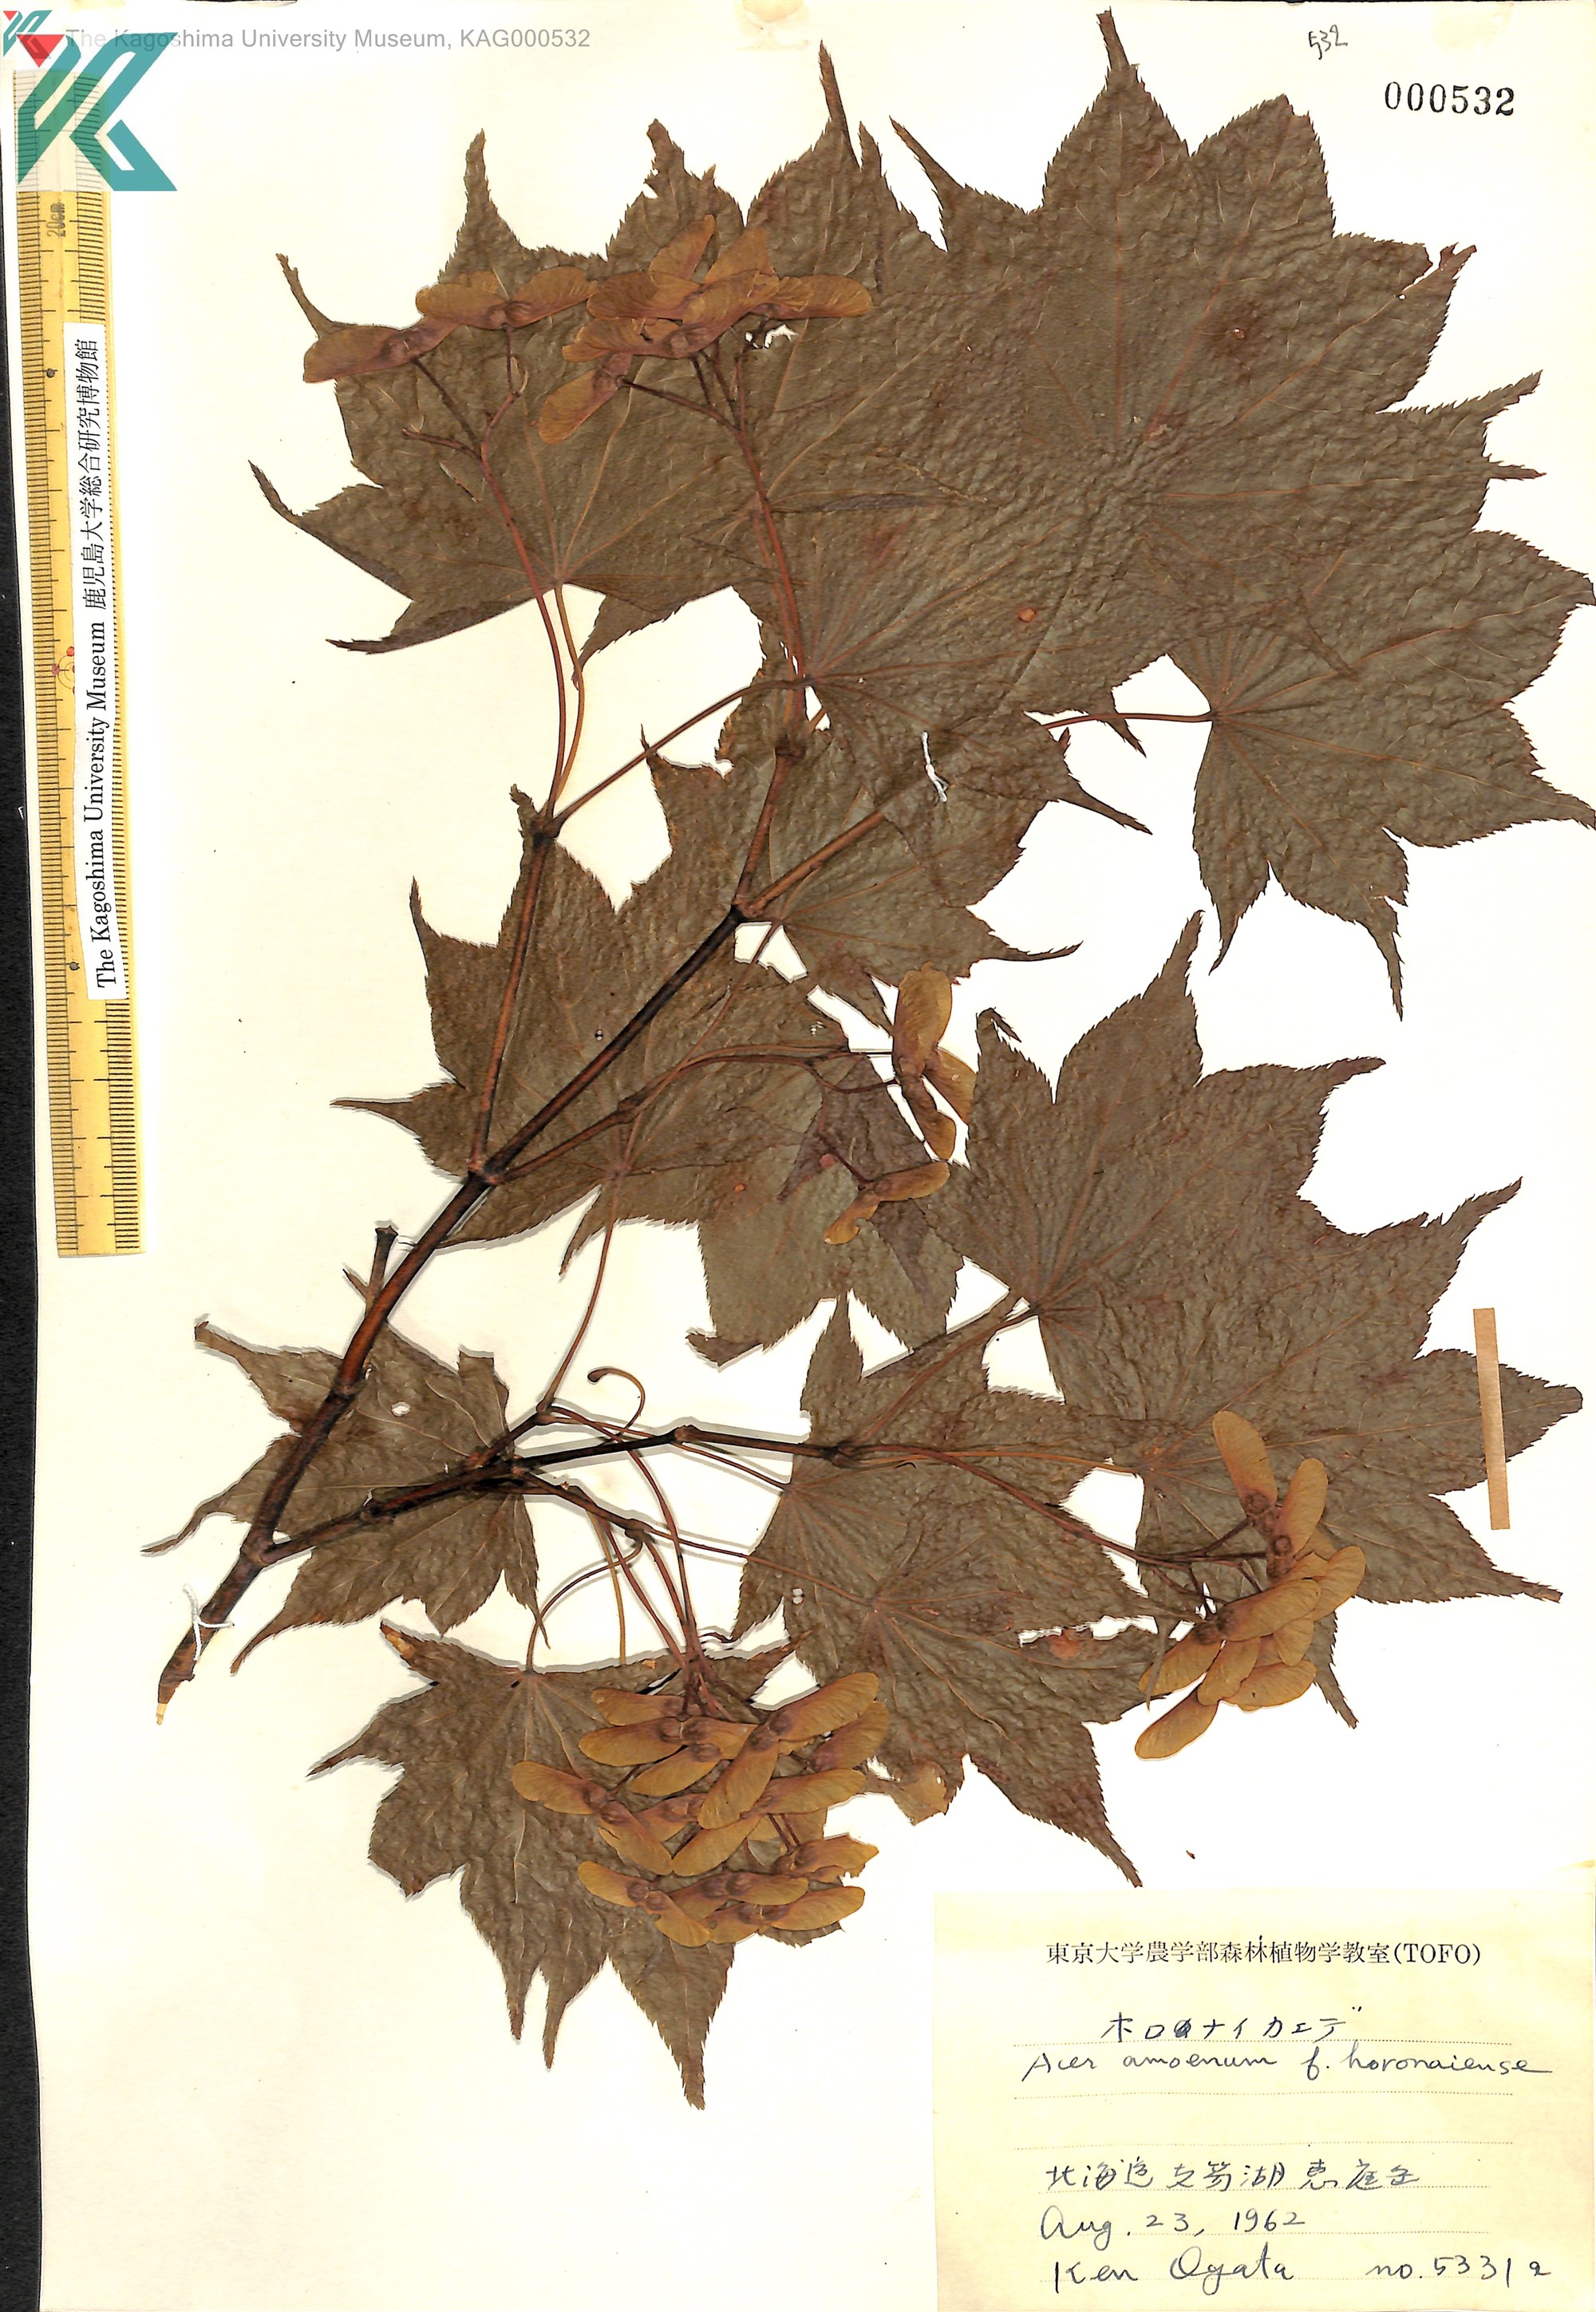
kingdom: Plantae
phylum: Tracheophyta
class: Magnoliopsida
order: Sapindales
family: Sapindaceae
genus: Acer
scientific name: Acer
